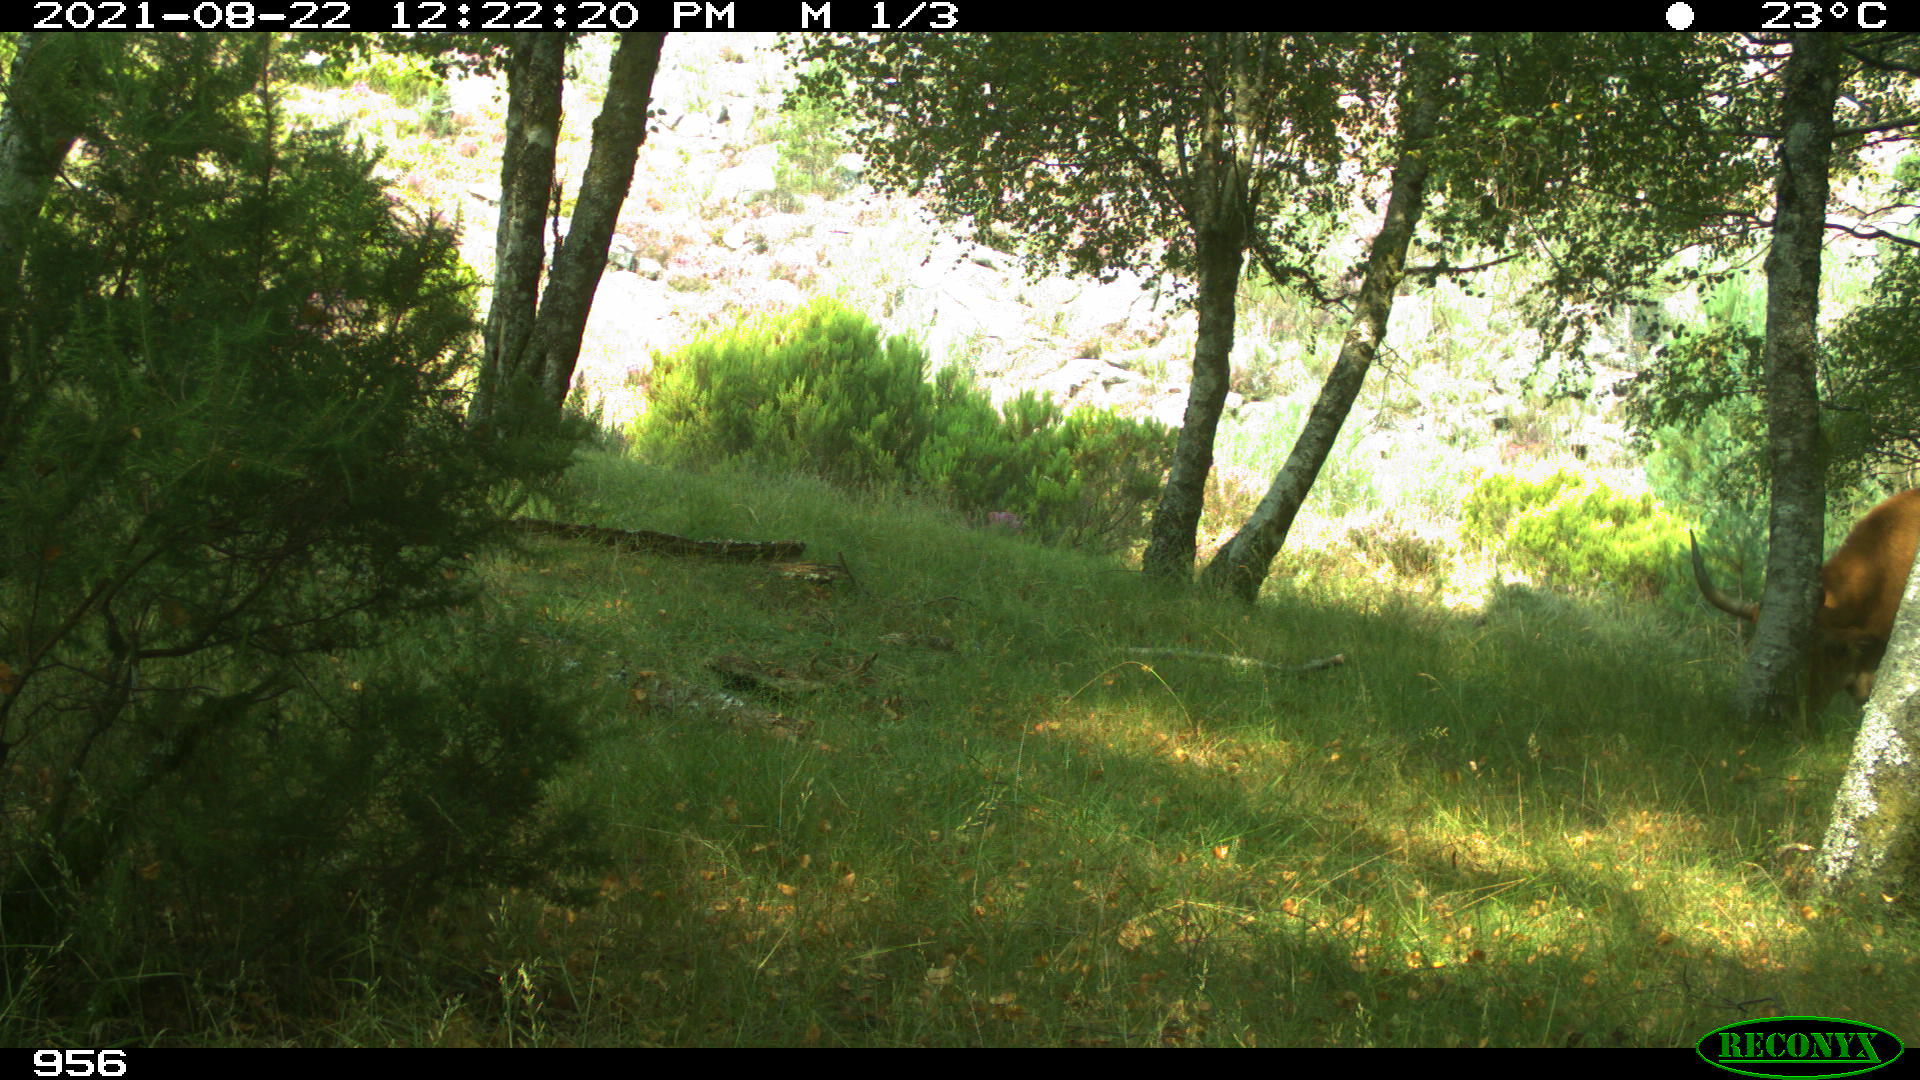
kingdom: Animalia
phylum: Chordata
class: Mammalia
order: Artiodactyla
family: Bovidae
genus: Bos
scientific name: Bos taurus
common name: Domesticated cattle
